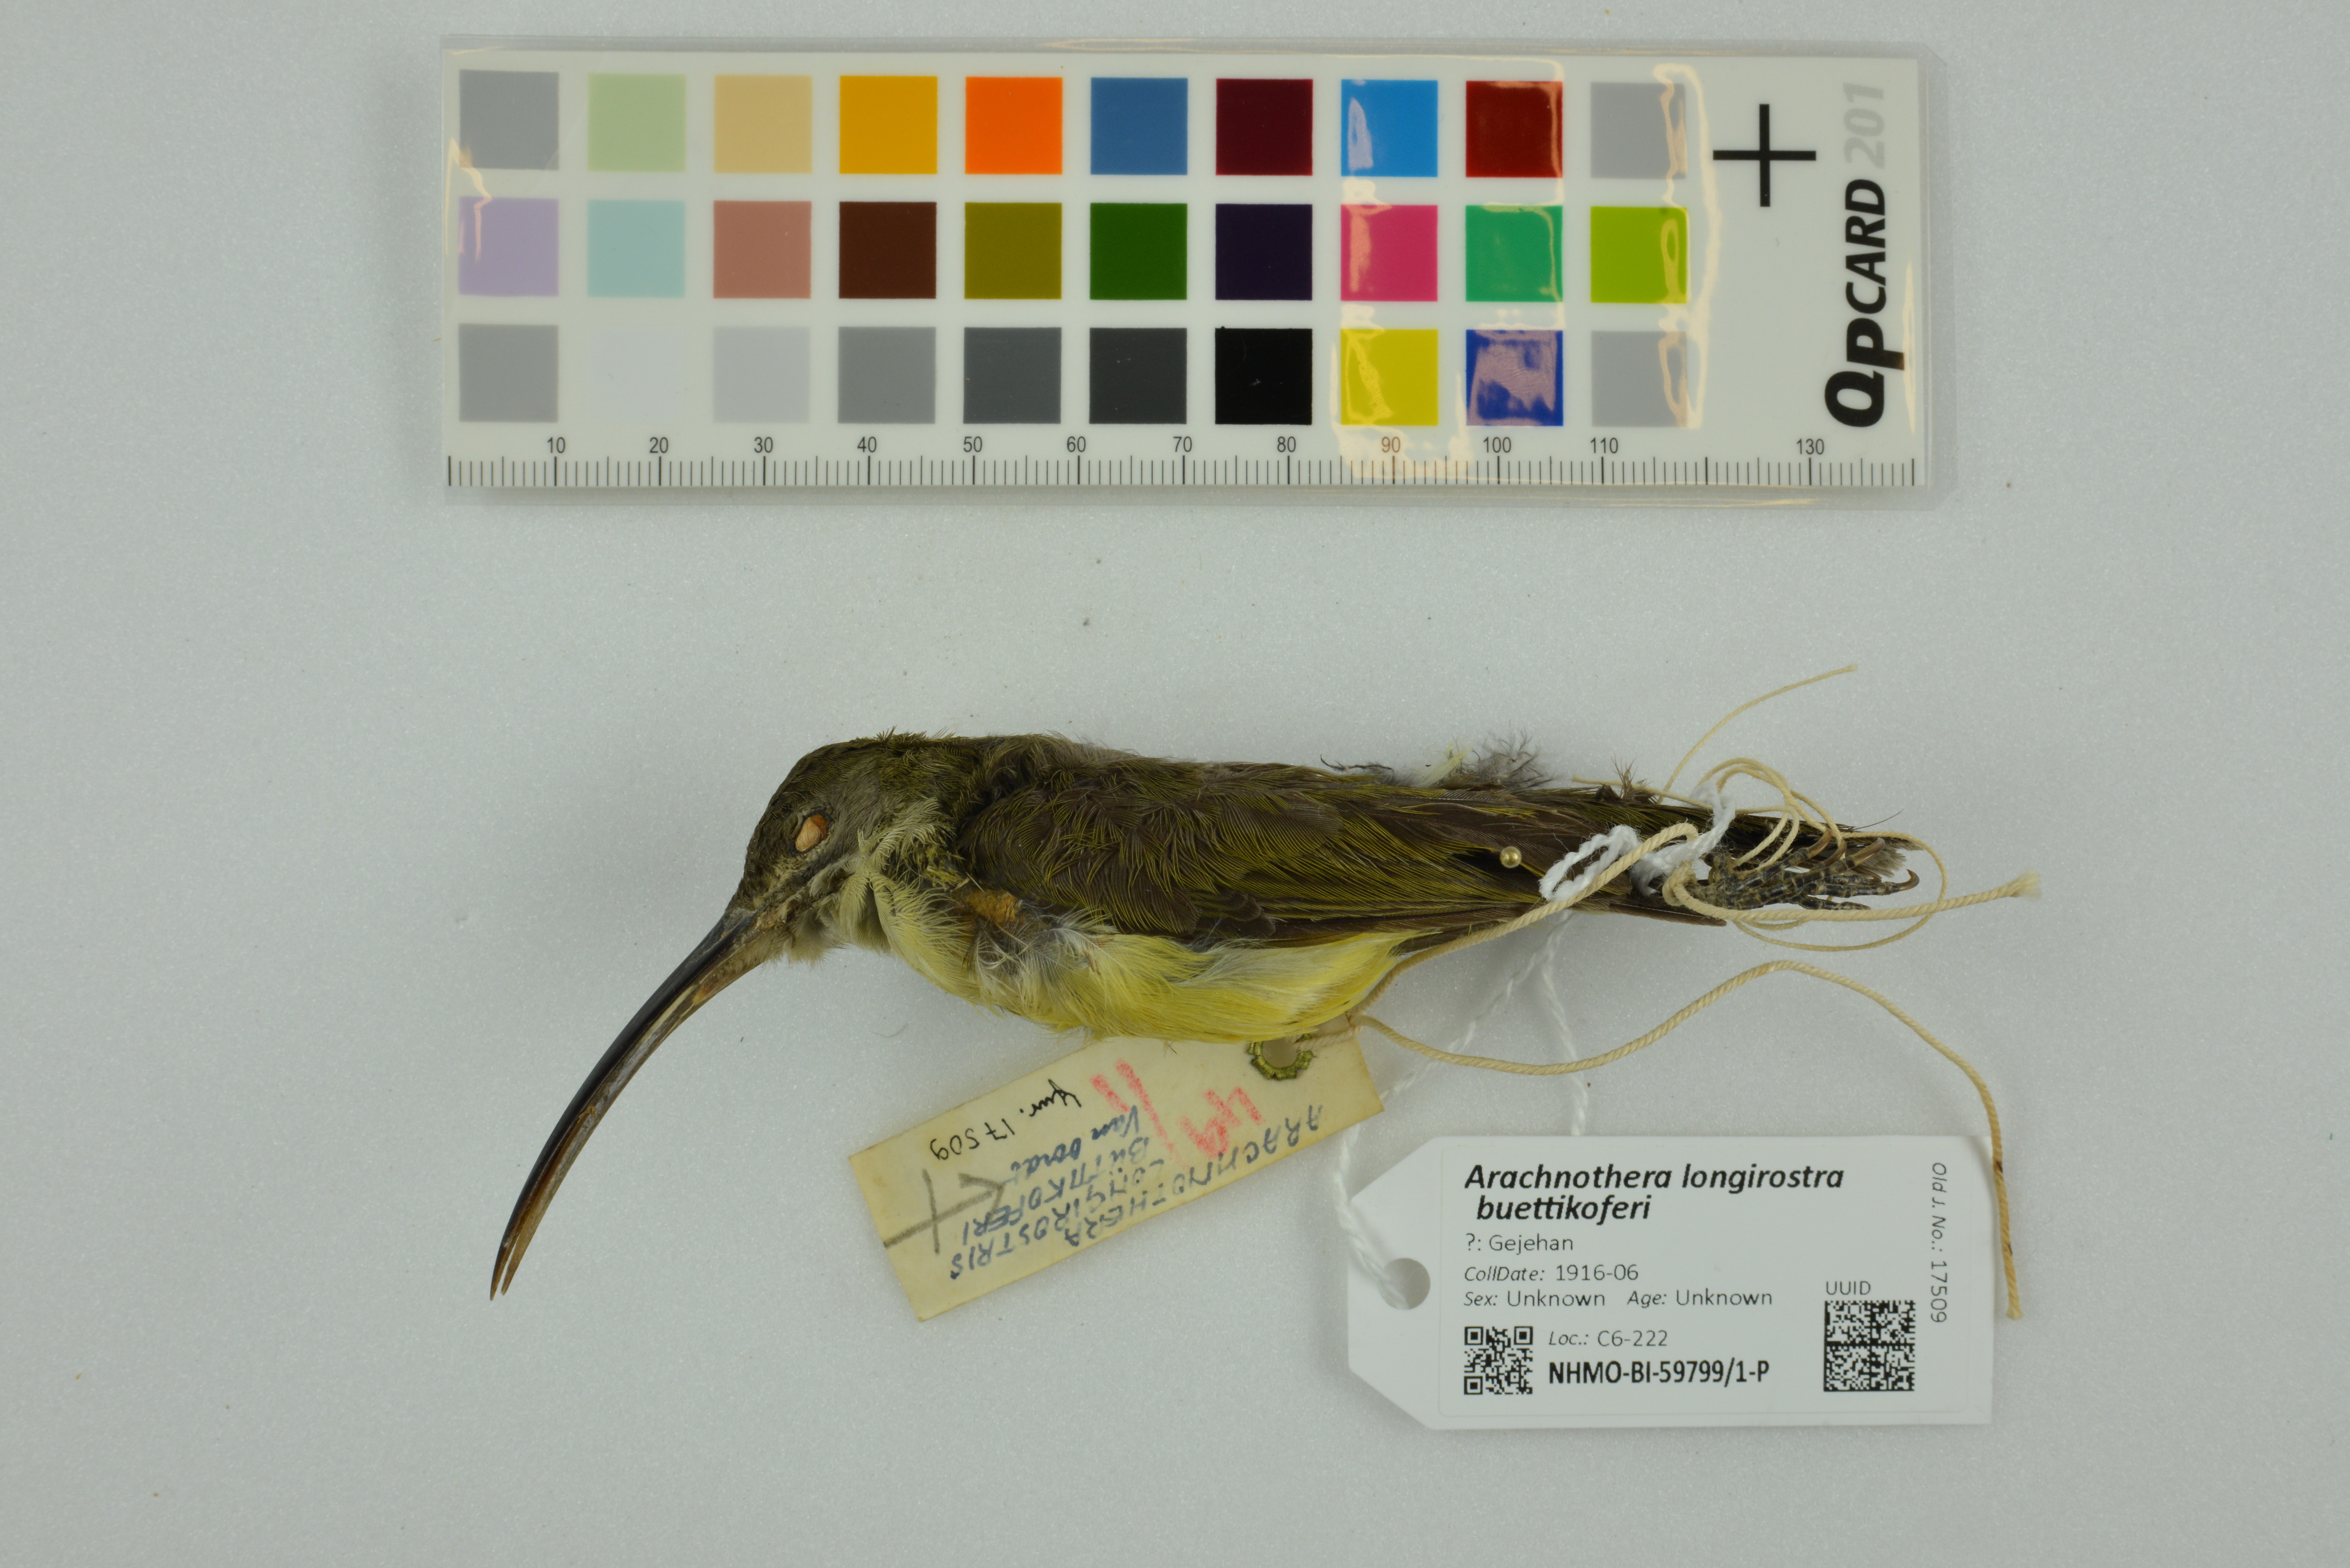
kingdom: Animalia
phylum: Chordata
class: Aves
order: Passeriformes
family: Nectariniidae
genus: Arachnothera
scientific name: Arachnothera longirostra
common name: Little spiderhunter
